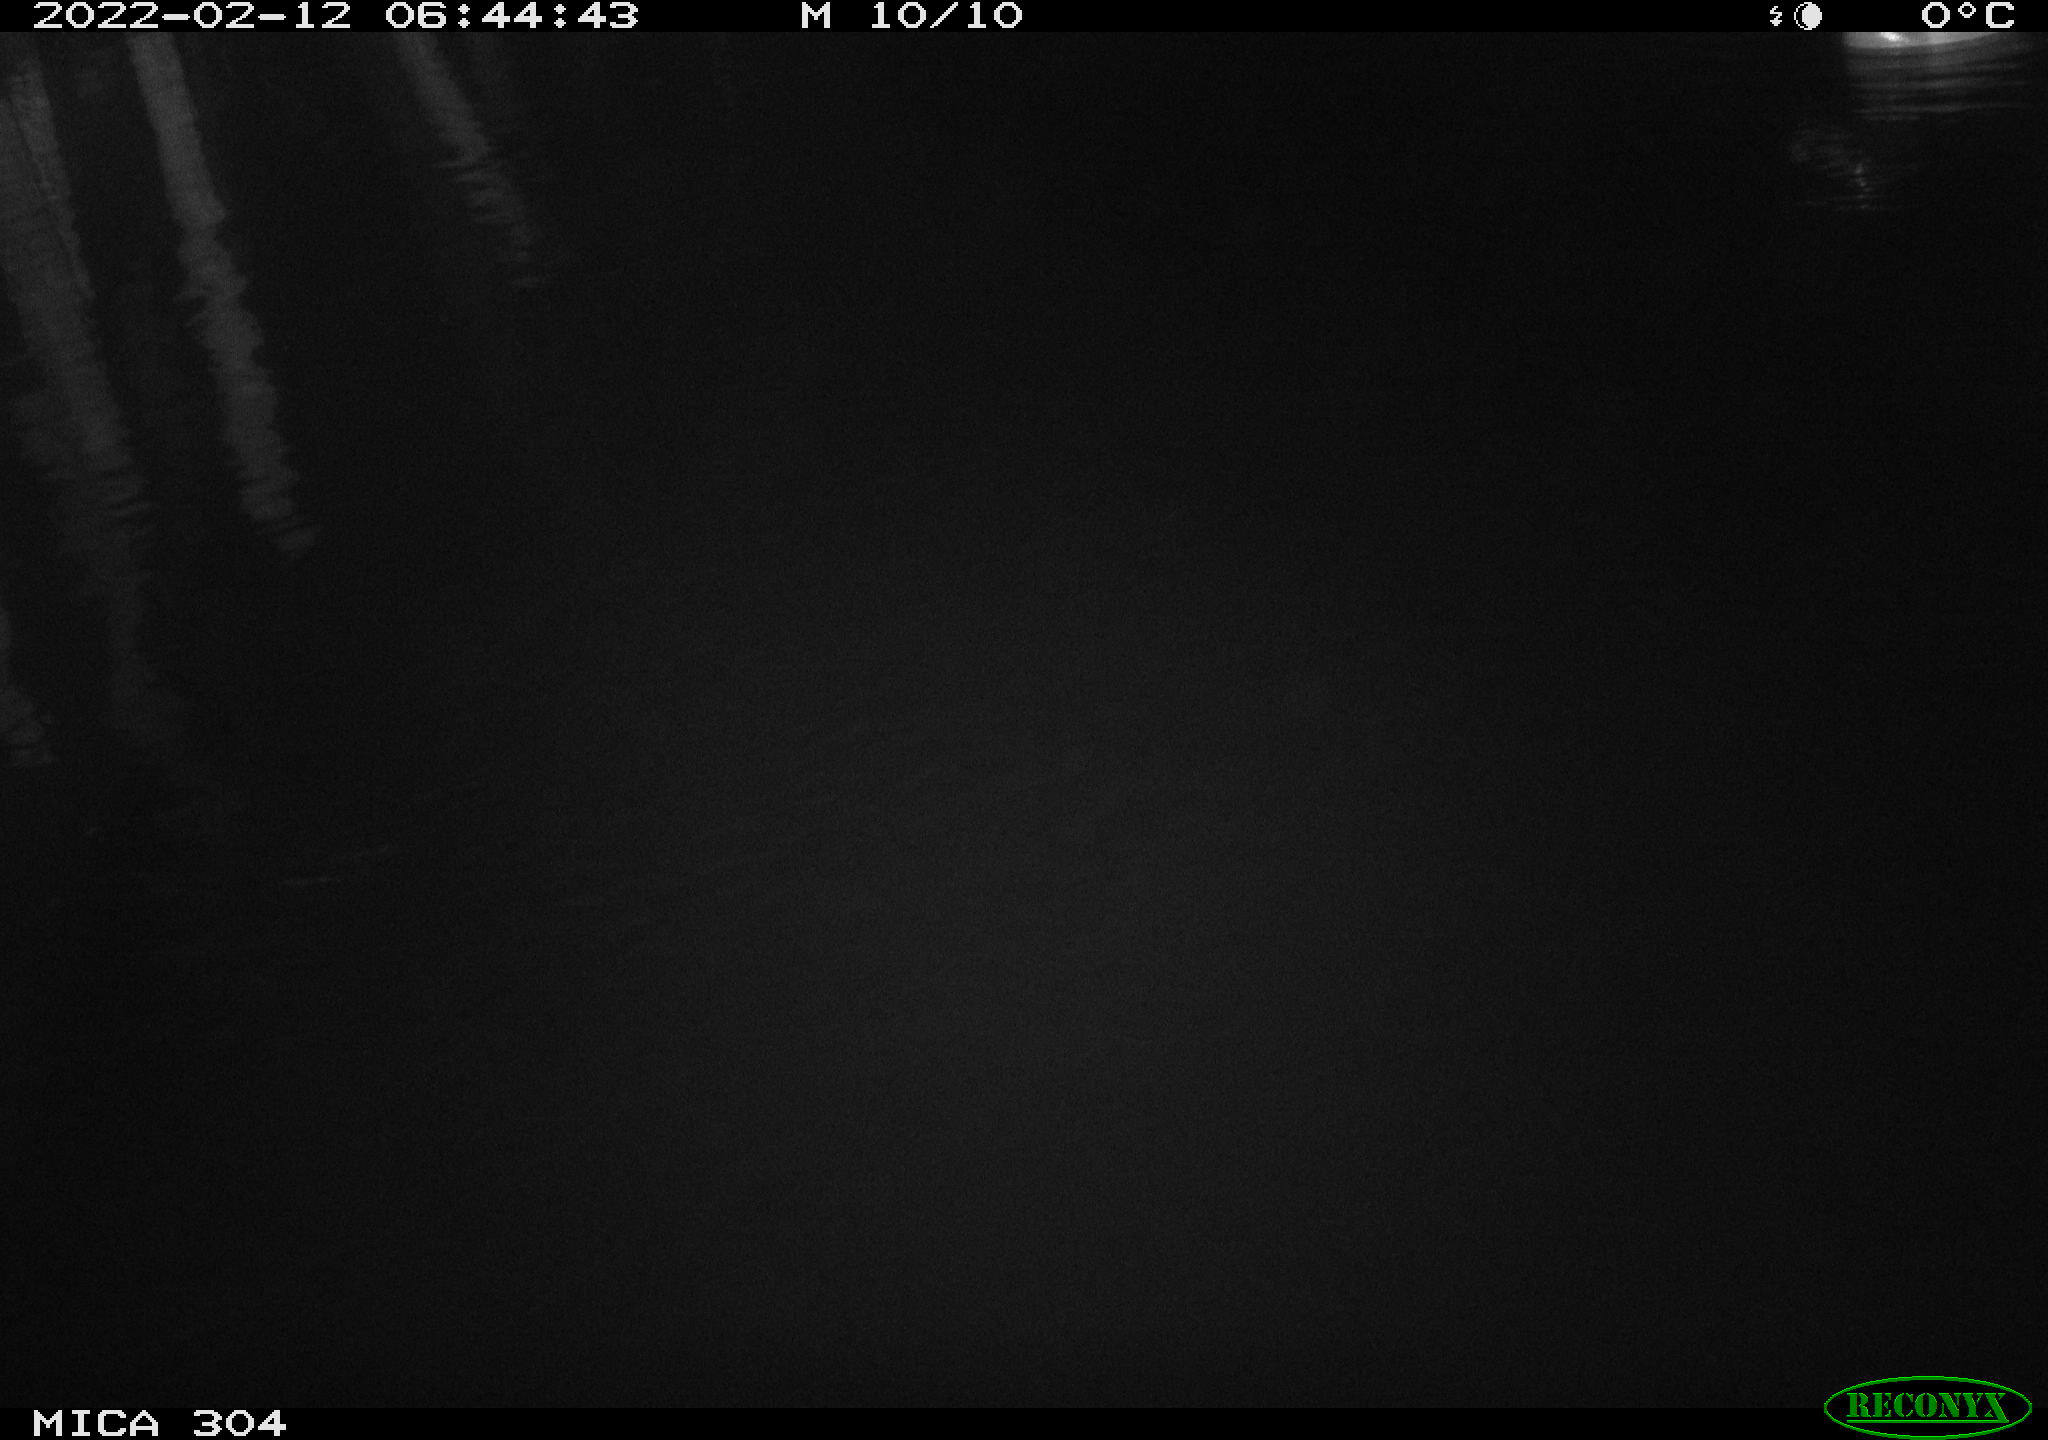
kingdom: Animalia
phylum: Chordata
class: Aves
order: Anseriformes
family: Anatidae
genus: Anas
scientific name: Anas platyrhynchos
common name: Mallard
